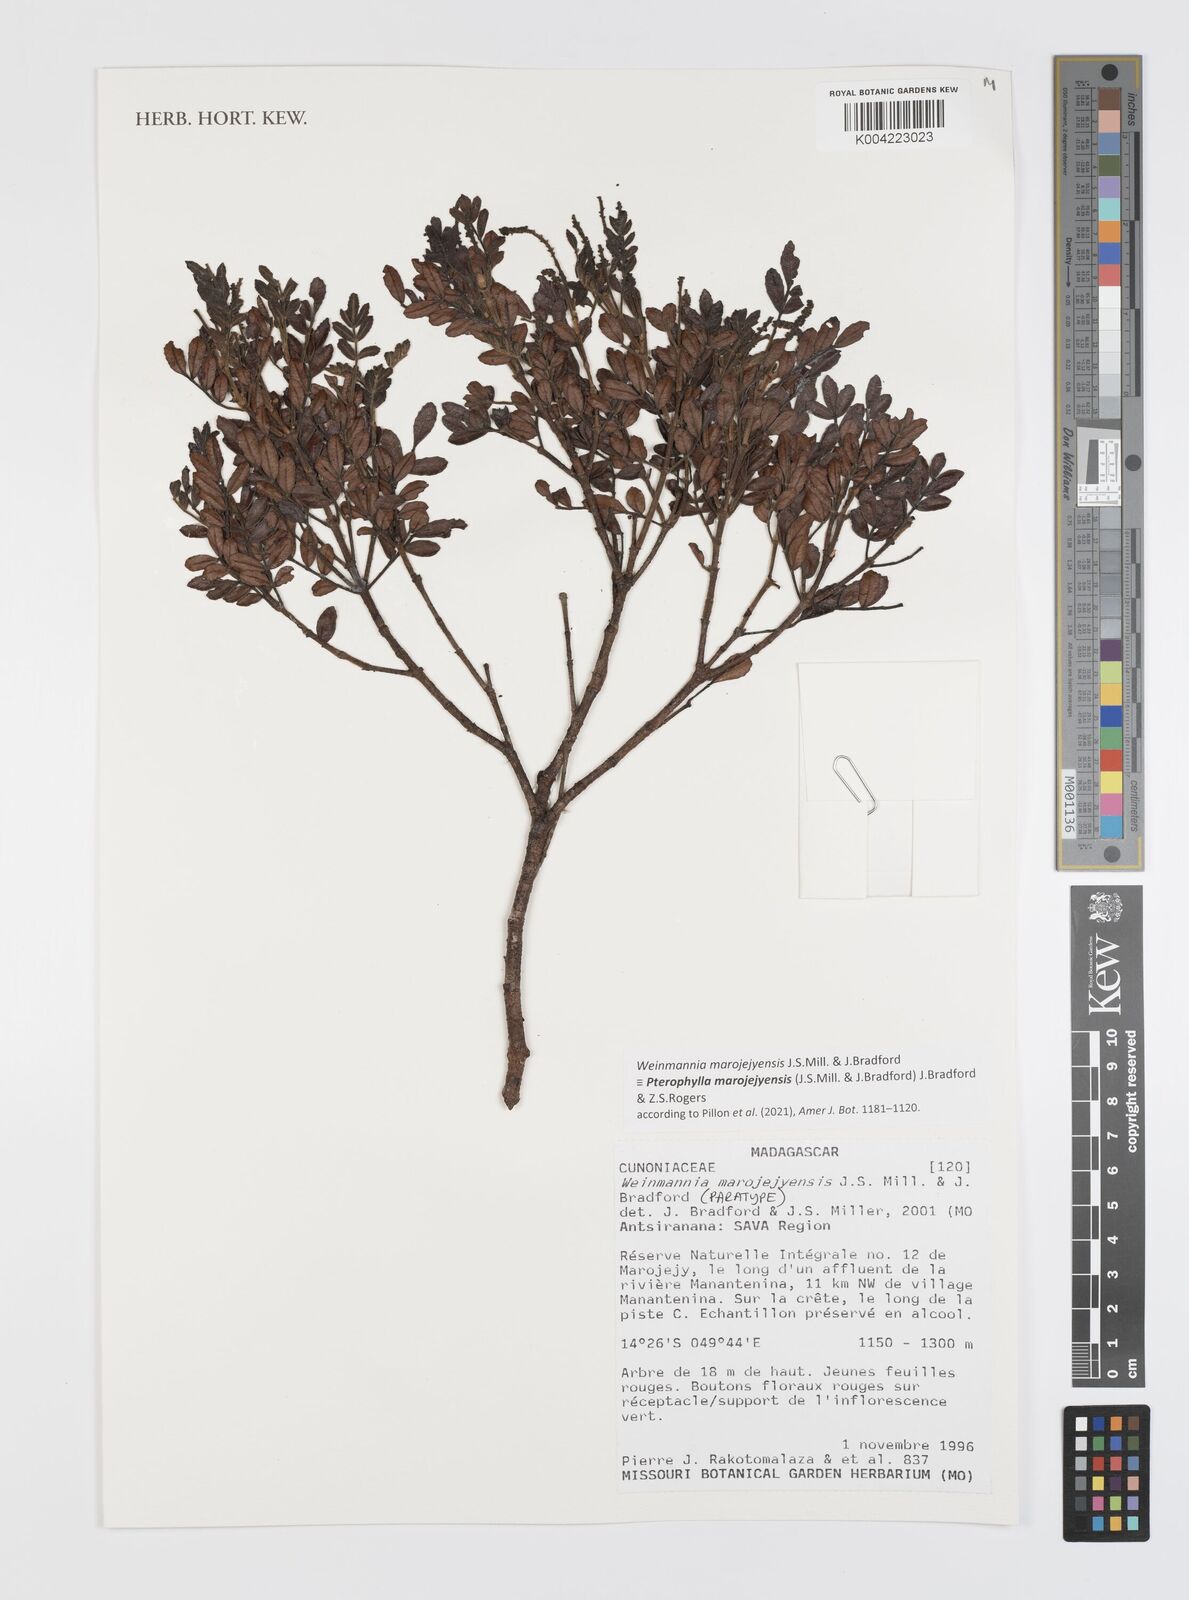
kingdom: Plantae
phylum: Tracheophyta
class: Magnoliopsida
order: Oxalidales
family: Cunoniaceae
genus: Pterophylla
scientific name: Pterophylla marojejyensis
